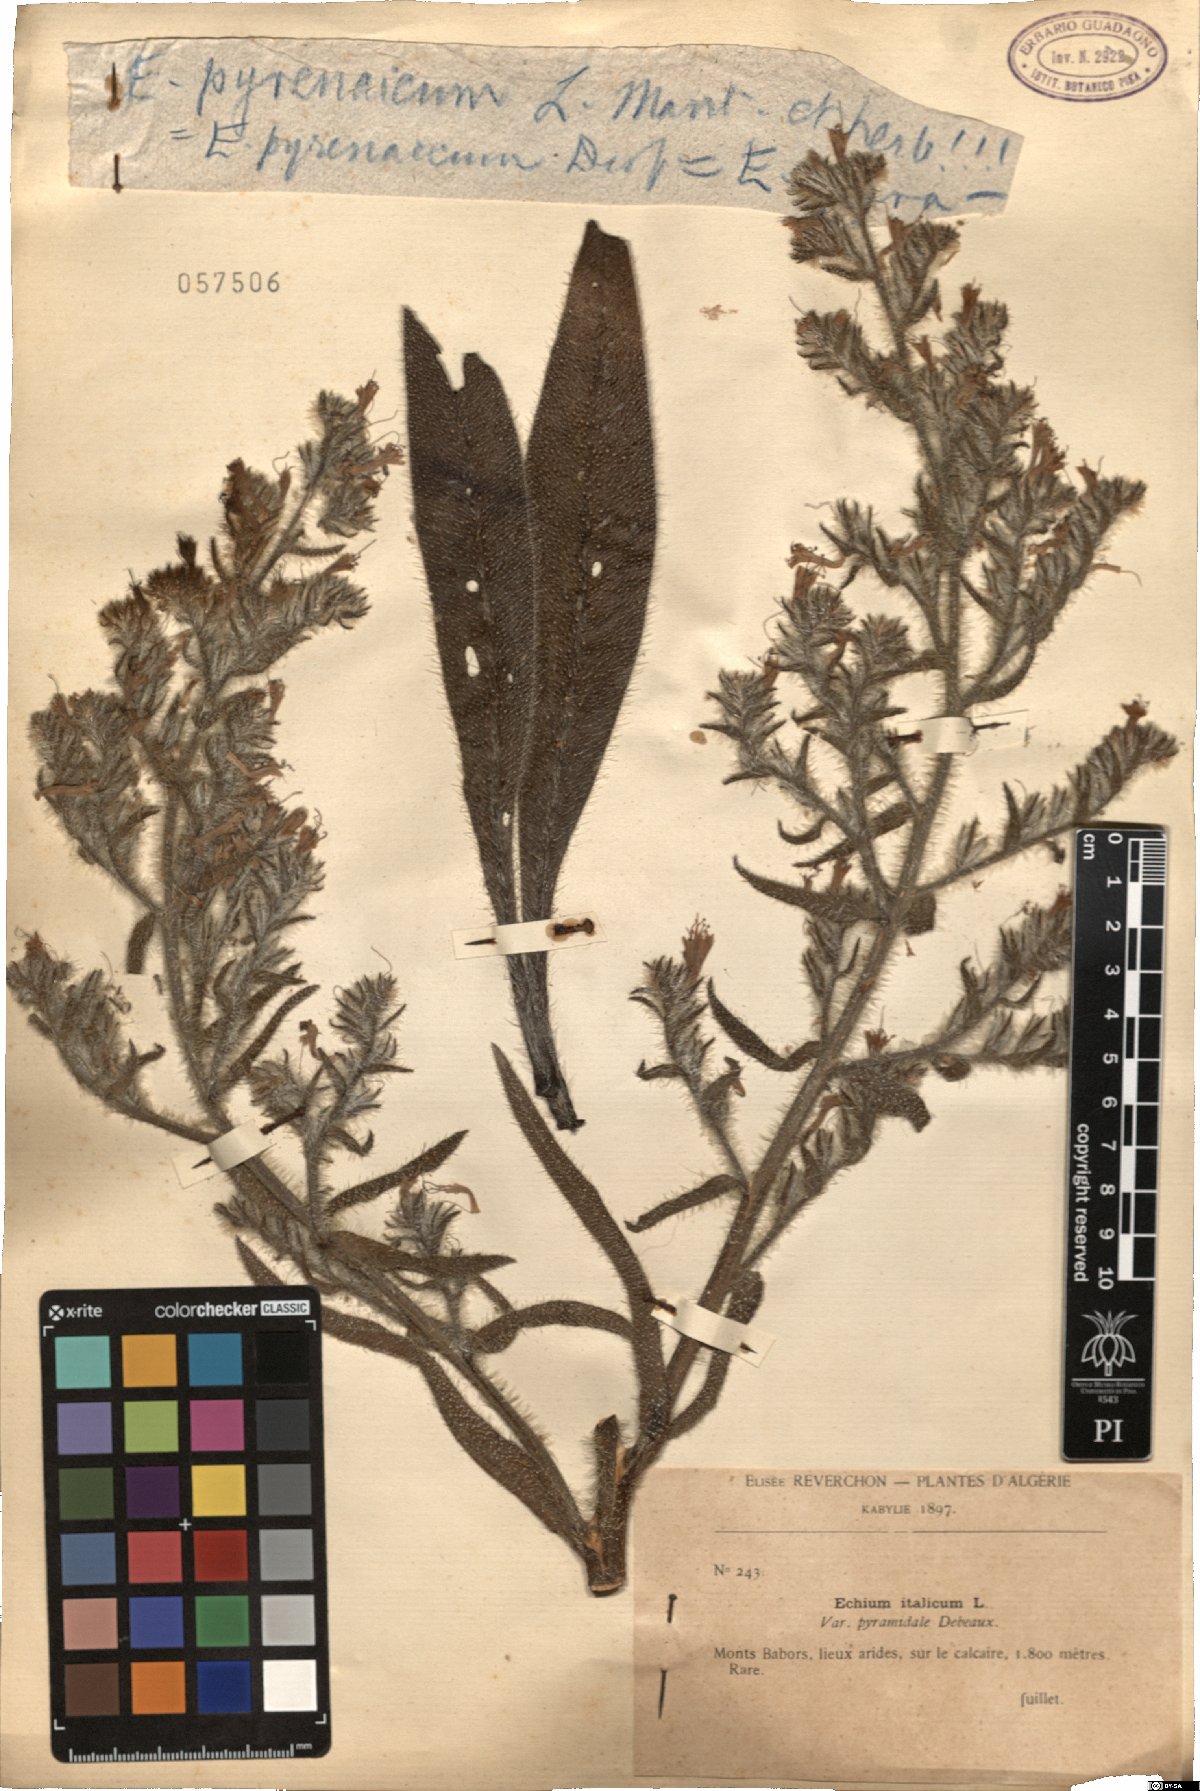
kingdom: Plantae
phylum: Tracheophyta
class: Magnoliopsida
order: Boraginales
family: Boraginaceae
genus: Echium
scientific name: Echium asperrimum
